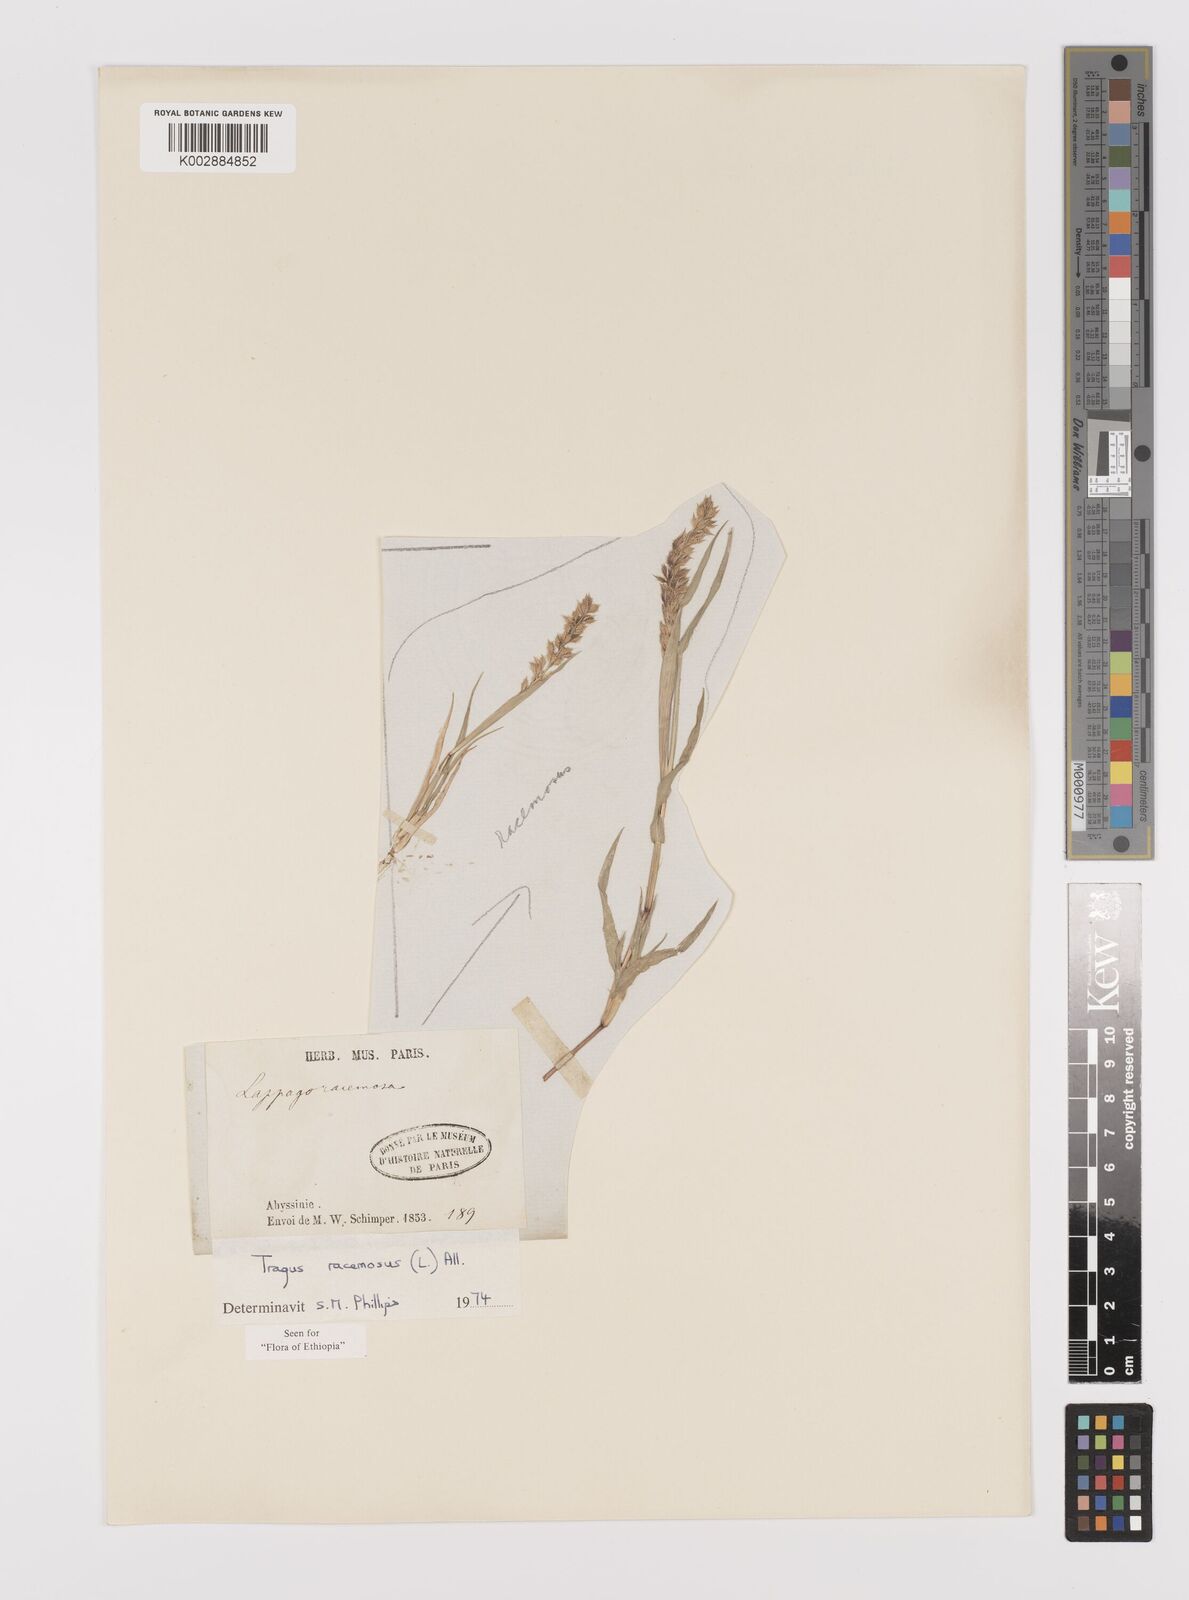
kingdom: Plantae
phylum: Tracheophyta
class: Liliopsida
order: Poales
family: Poaceae
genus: Tragus
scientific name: Tragus racemosus
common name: European bur-grass
